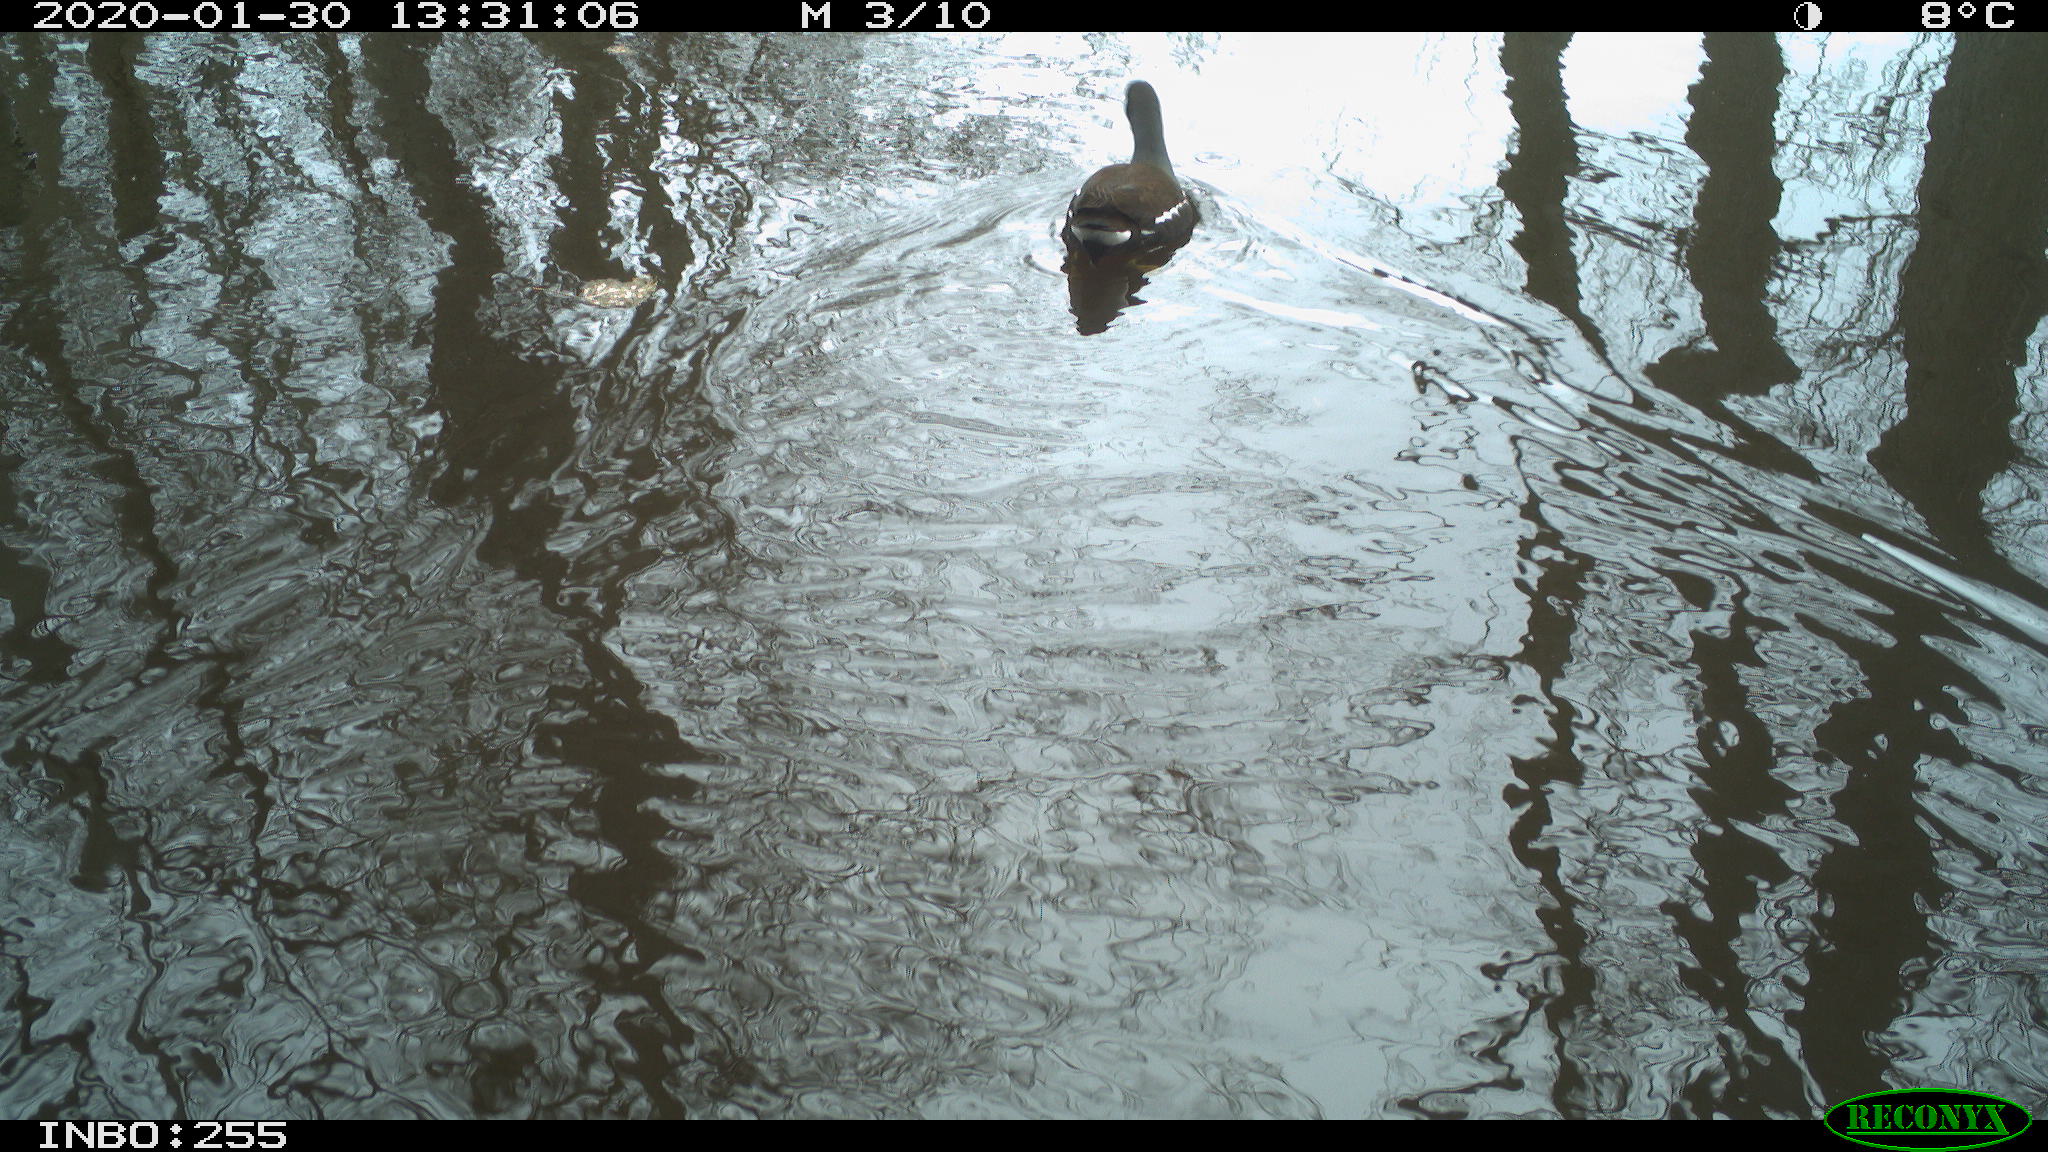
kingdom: Animalia
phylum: Chordata
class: Aves
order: Gruiformes
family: Rallidae
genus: Gallinula
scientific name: Gallinula chloropus
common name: Common moorhen
